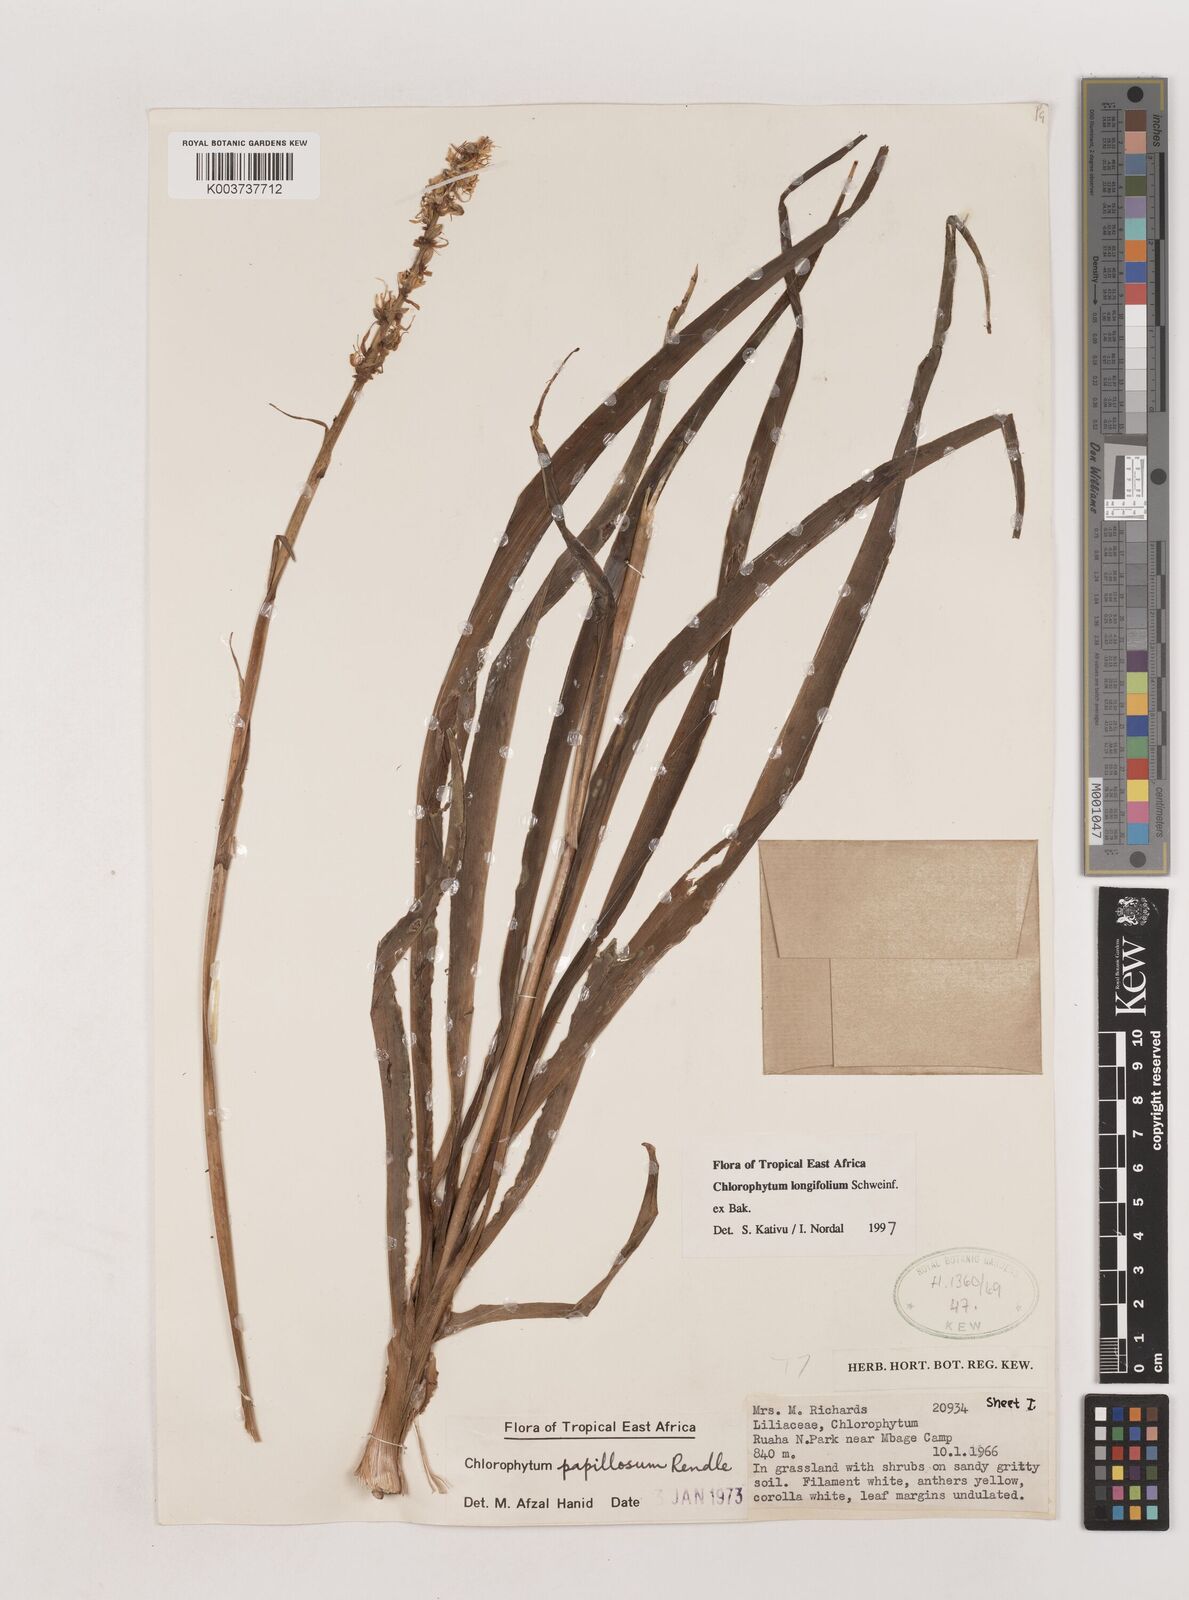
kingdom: Plantae
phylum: Tracheophyta
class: Liliopsida
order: Asparagales
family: Asparagaceae
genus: Chlorophytum
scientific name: Chlorophytum longifolium
